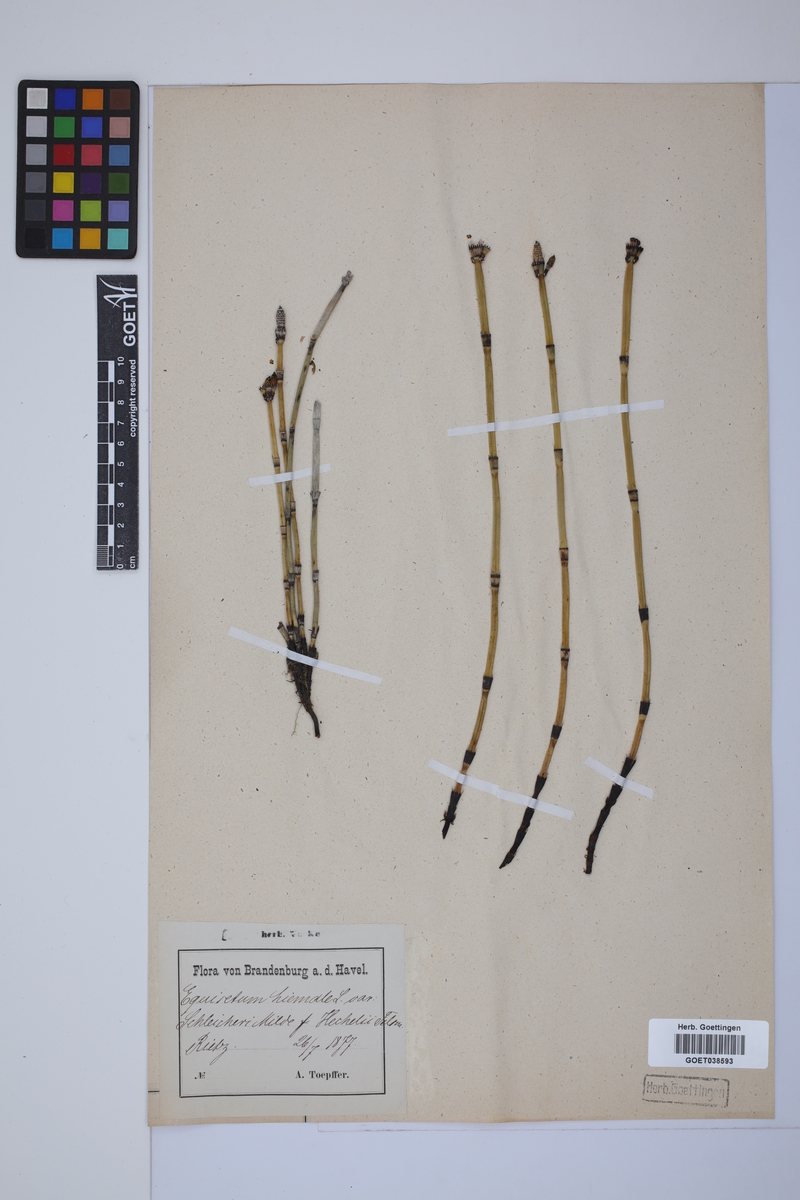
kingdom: Plantae
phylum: Tracheophyta
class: Polypodiopsida
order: Equisetales
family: Equisetaceae
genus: Equisetum
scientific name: Equisetum hyemale
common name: Rough horsetail
